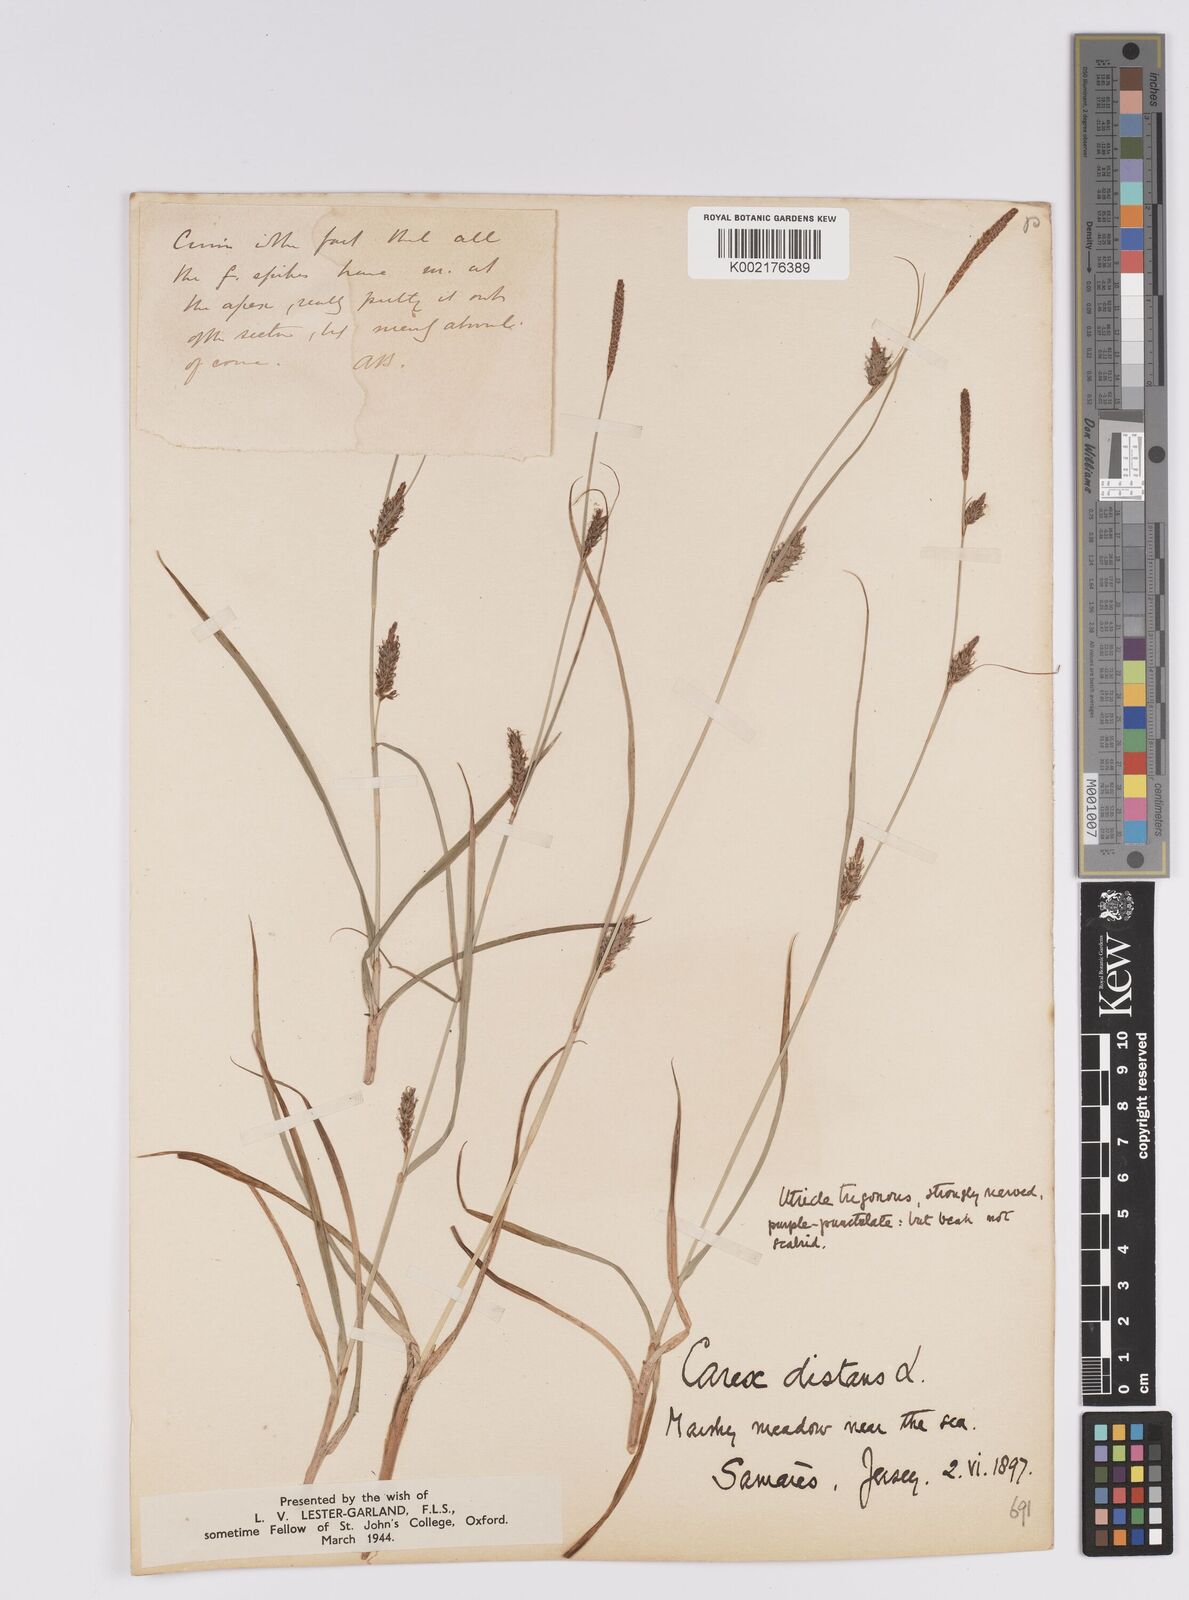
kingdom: Plantae
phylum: Tracheophyta
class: Liliopsida
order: Poales
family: Cyperaceae
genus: Carex
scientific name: Carex distans
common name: Distant sedge
